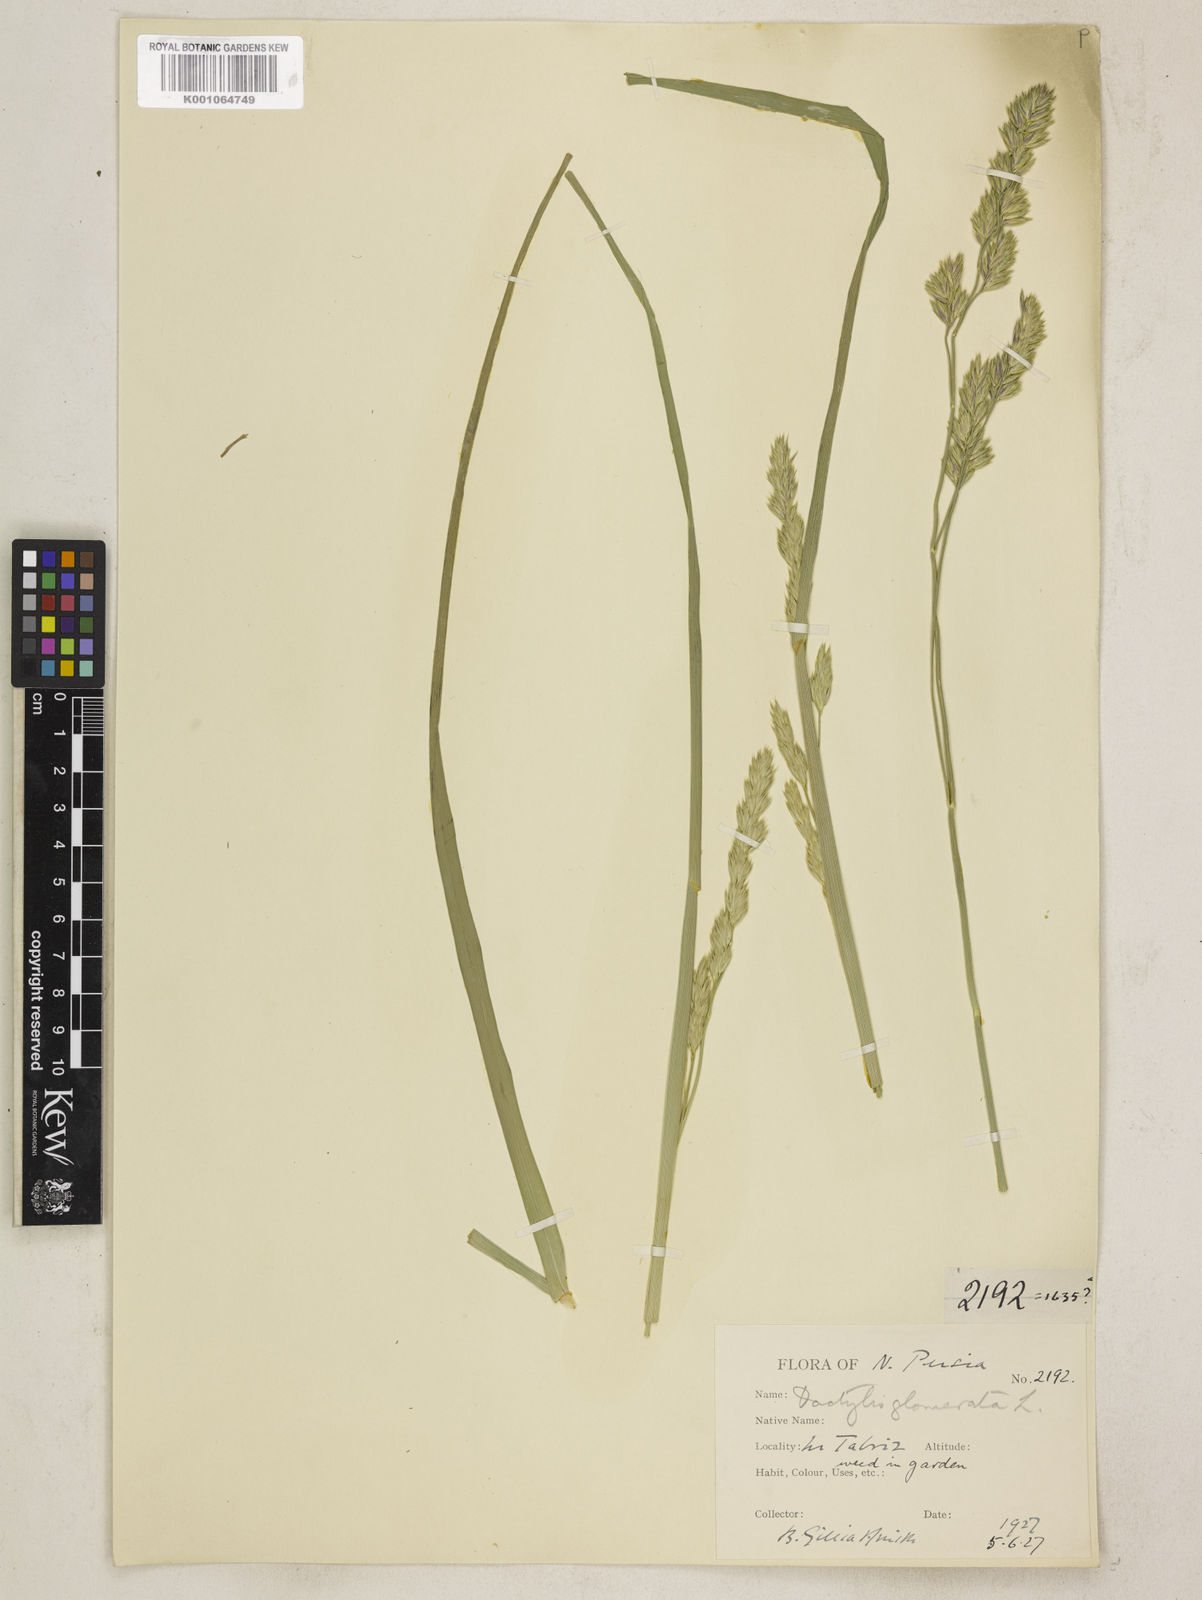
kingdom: Plantae
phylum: Tracheophyta
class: Liliopsida
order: Poales
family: Poaceae
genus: Dactylis
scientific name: Dactylis glomerata
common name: Orchardgrass
